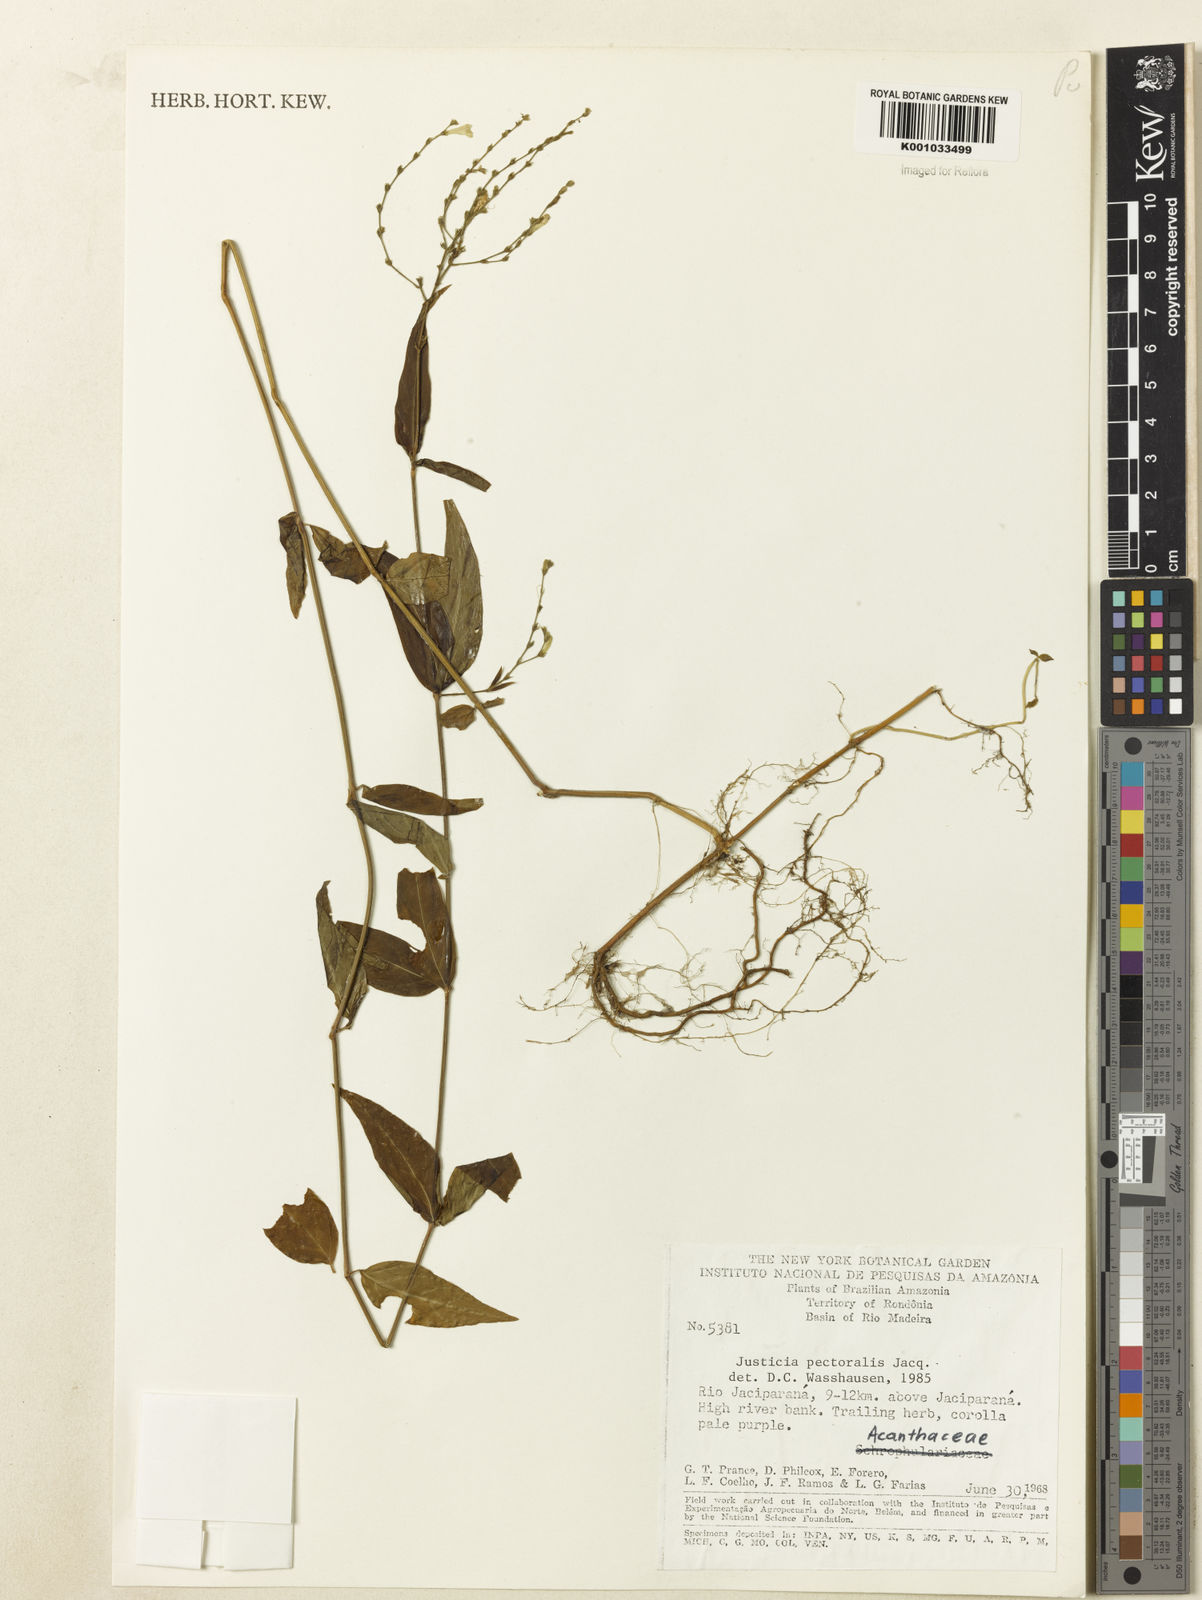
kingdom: Plantae
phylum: Tracheophyta
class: Magnoliopsida
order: Lamiales
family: Acanthaceae
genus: Dianthera
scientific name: Dianthera pectoralis
